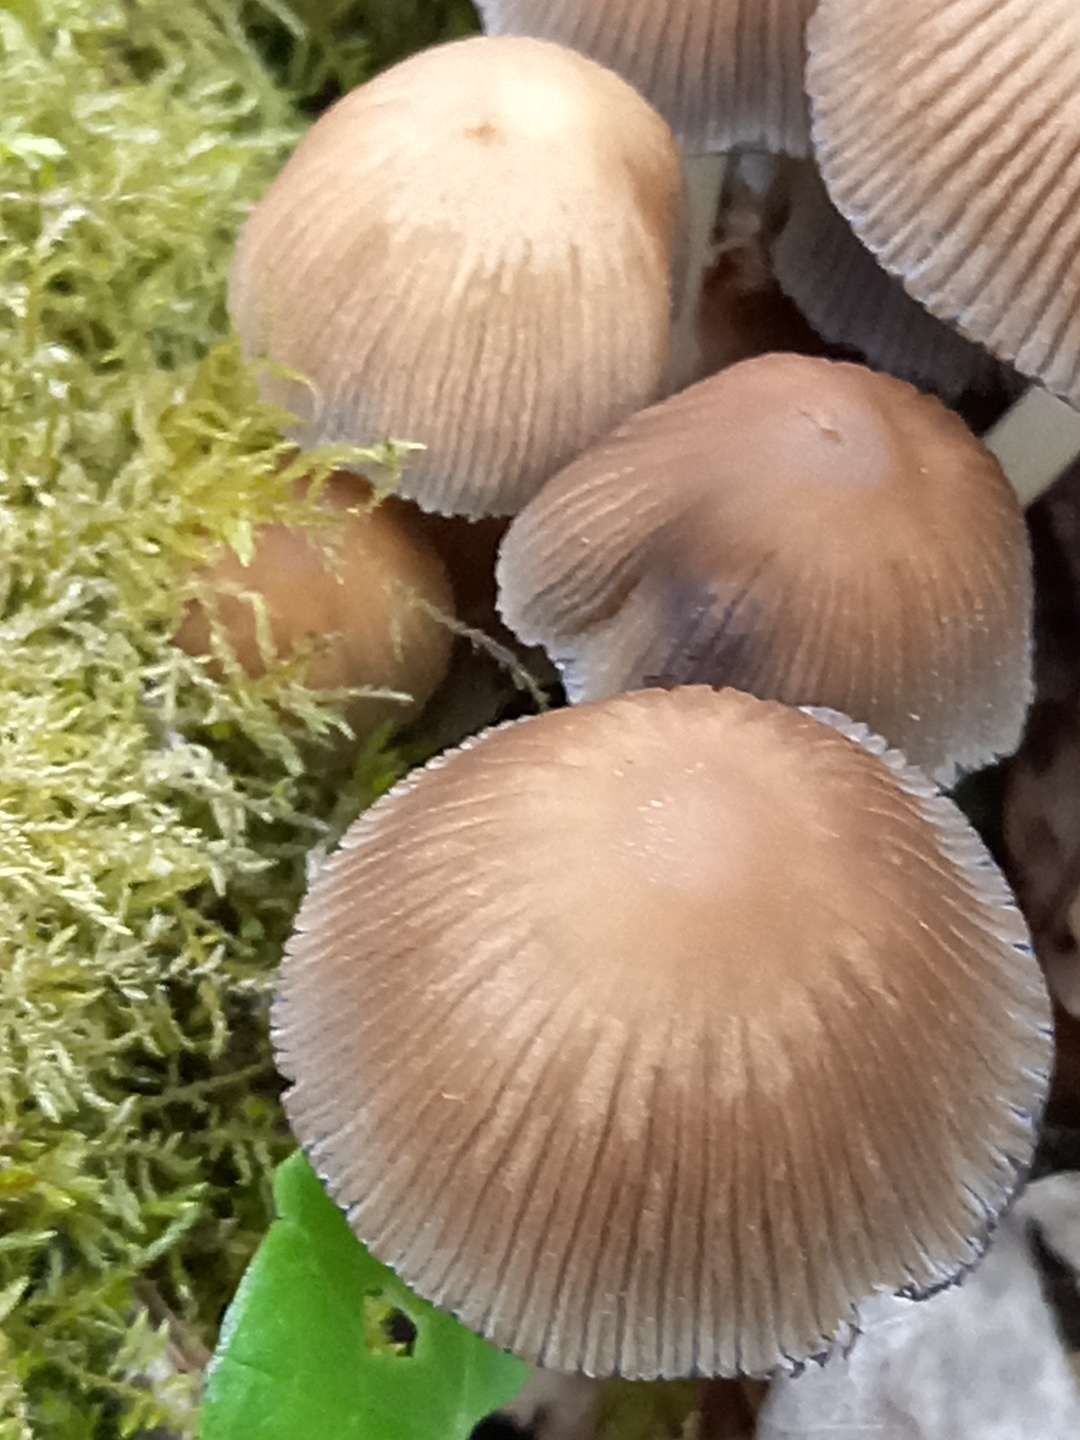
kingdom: Fungi
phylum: Basidiomycota
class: Agaricomycetes
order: Agaricales
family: Psathyrellaceae
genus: Coprinellus
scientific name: Coprinellus micaceus
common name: glimmer-blækhat
